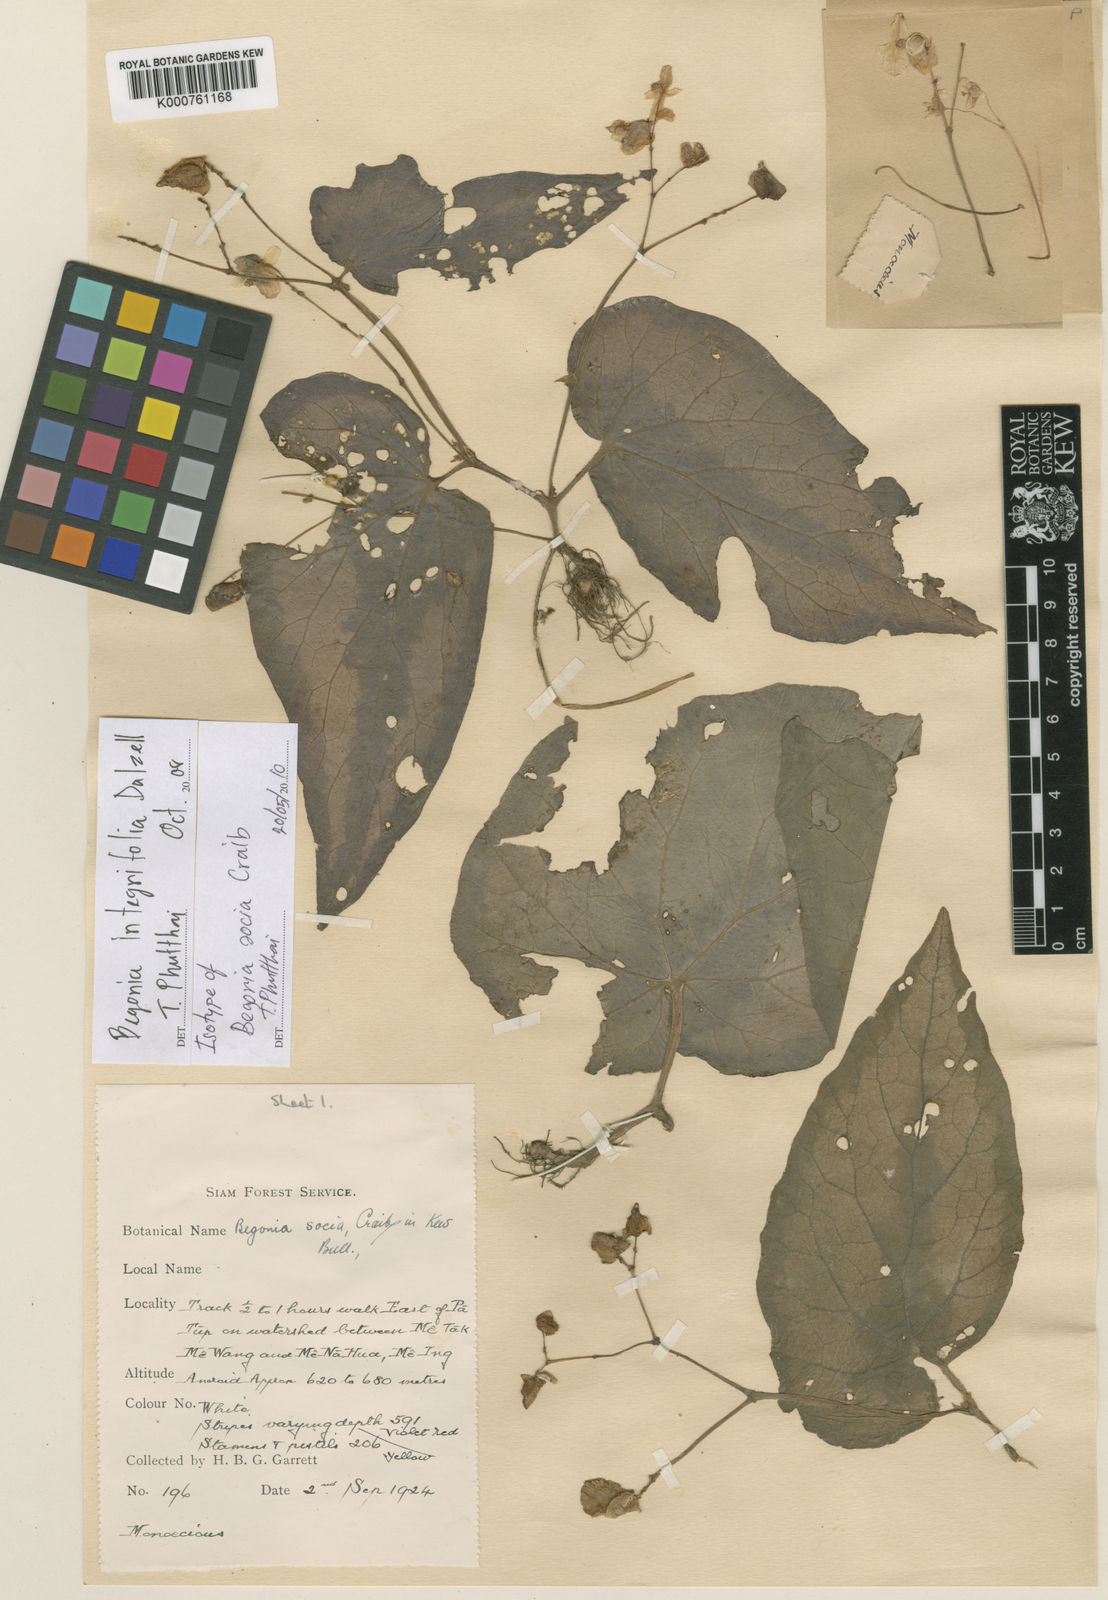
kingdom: Plantae
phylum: Tracheophyta
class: Magnoliopsida
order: Cucurbitales
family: Begoniaceae
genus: Begonia
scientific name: Begonia integrifolia
